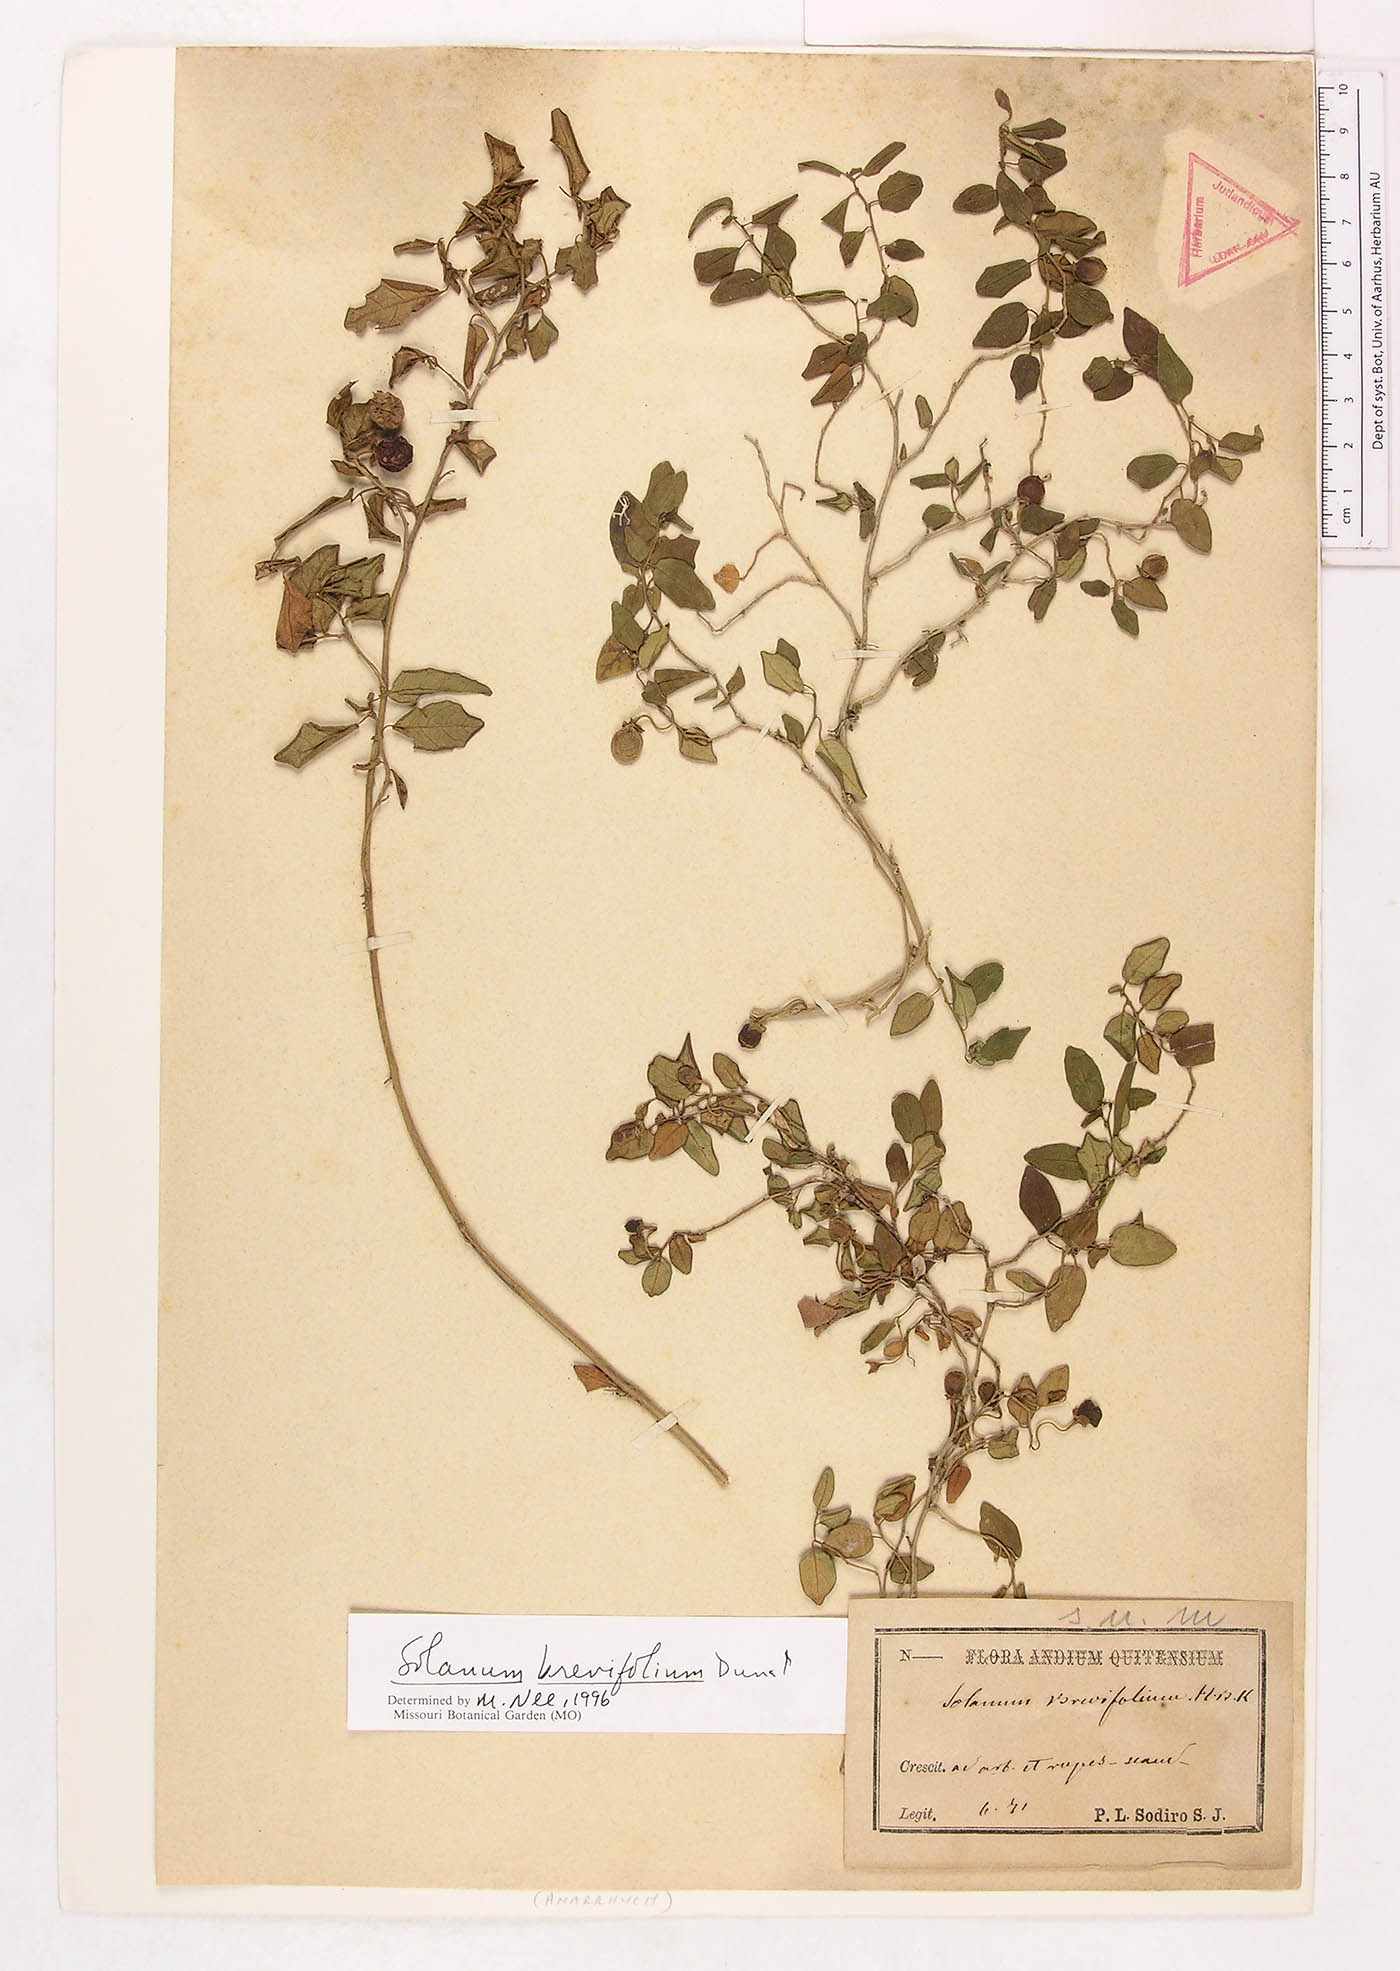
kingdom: Plantae
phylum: Tracheophyta
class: Magnoliopsida
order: Solanales
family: Solanaceae
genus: Solanum
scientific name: Solanum brevifolium
